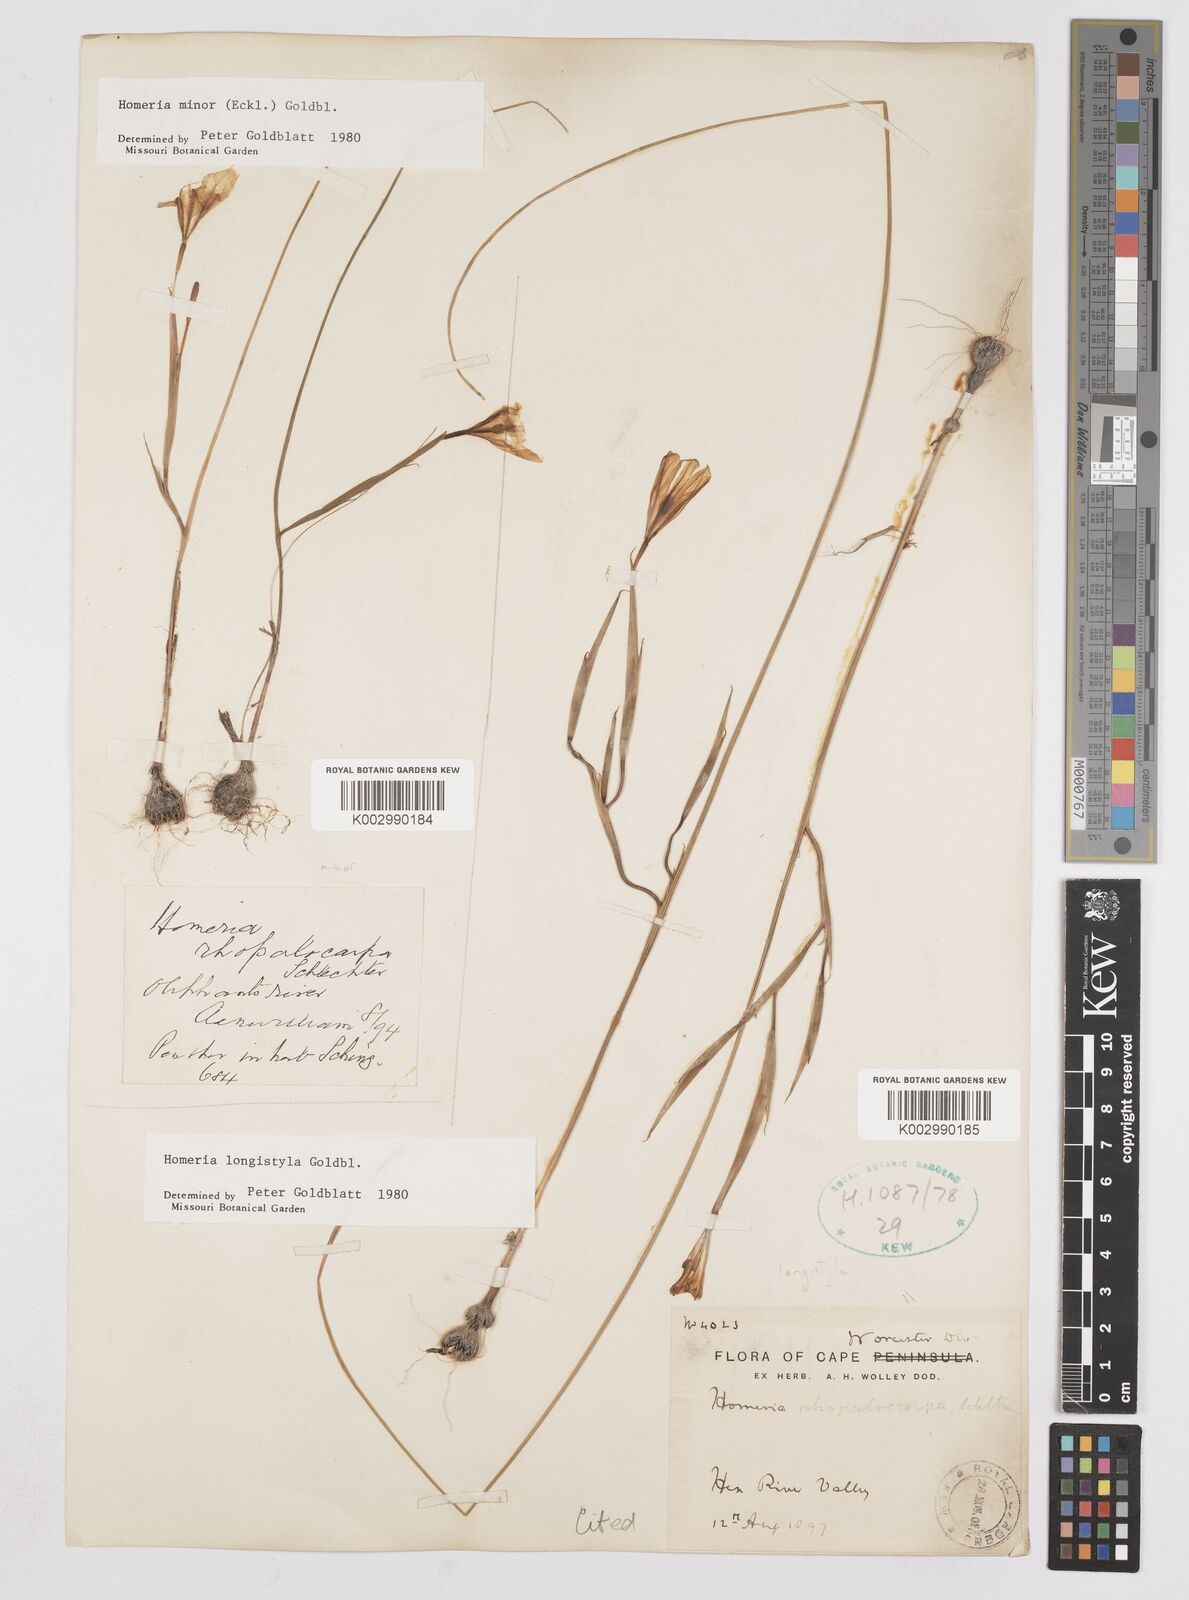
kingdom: Plantae
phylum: Tracheophyta
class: Liliopsida
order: Asparagales
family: Iridaceae
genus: Moraea
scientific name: Moraea longistyla
